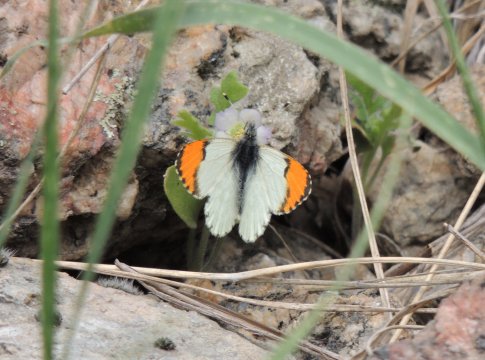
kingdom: Animalia
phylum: Arthropoda
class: Insecta
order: Lepidoptera
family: Pieridae
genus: Anthocharis
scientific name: Anthocharis julia
